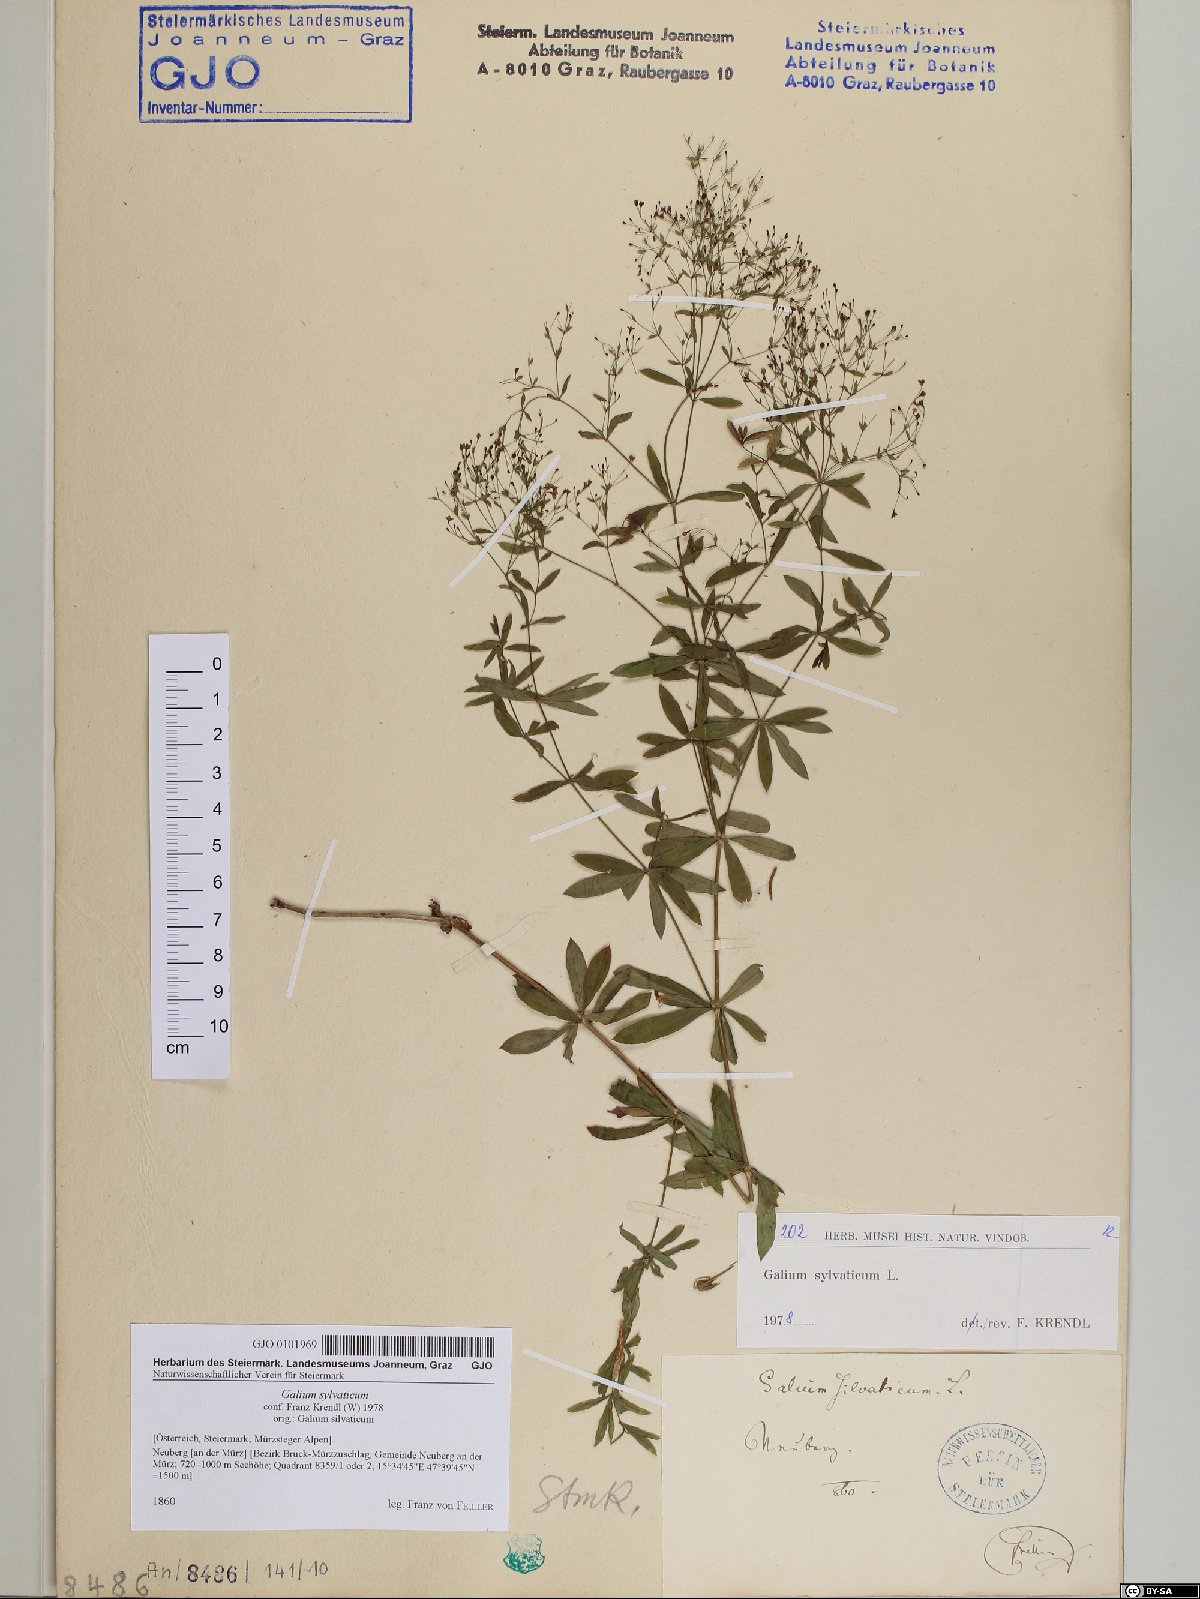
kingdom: Plantae
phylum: Tracheophyta
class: Magnoliopsida
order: Gentianales
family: Rubiaceae
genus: Galium
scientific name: Galium sylvaticum
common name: Wood bedstraw
